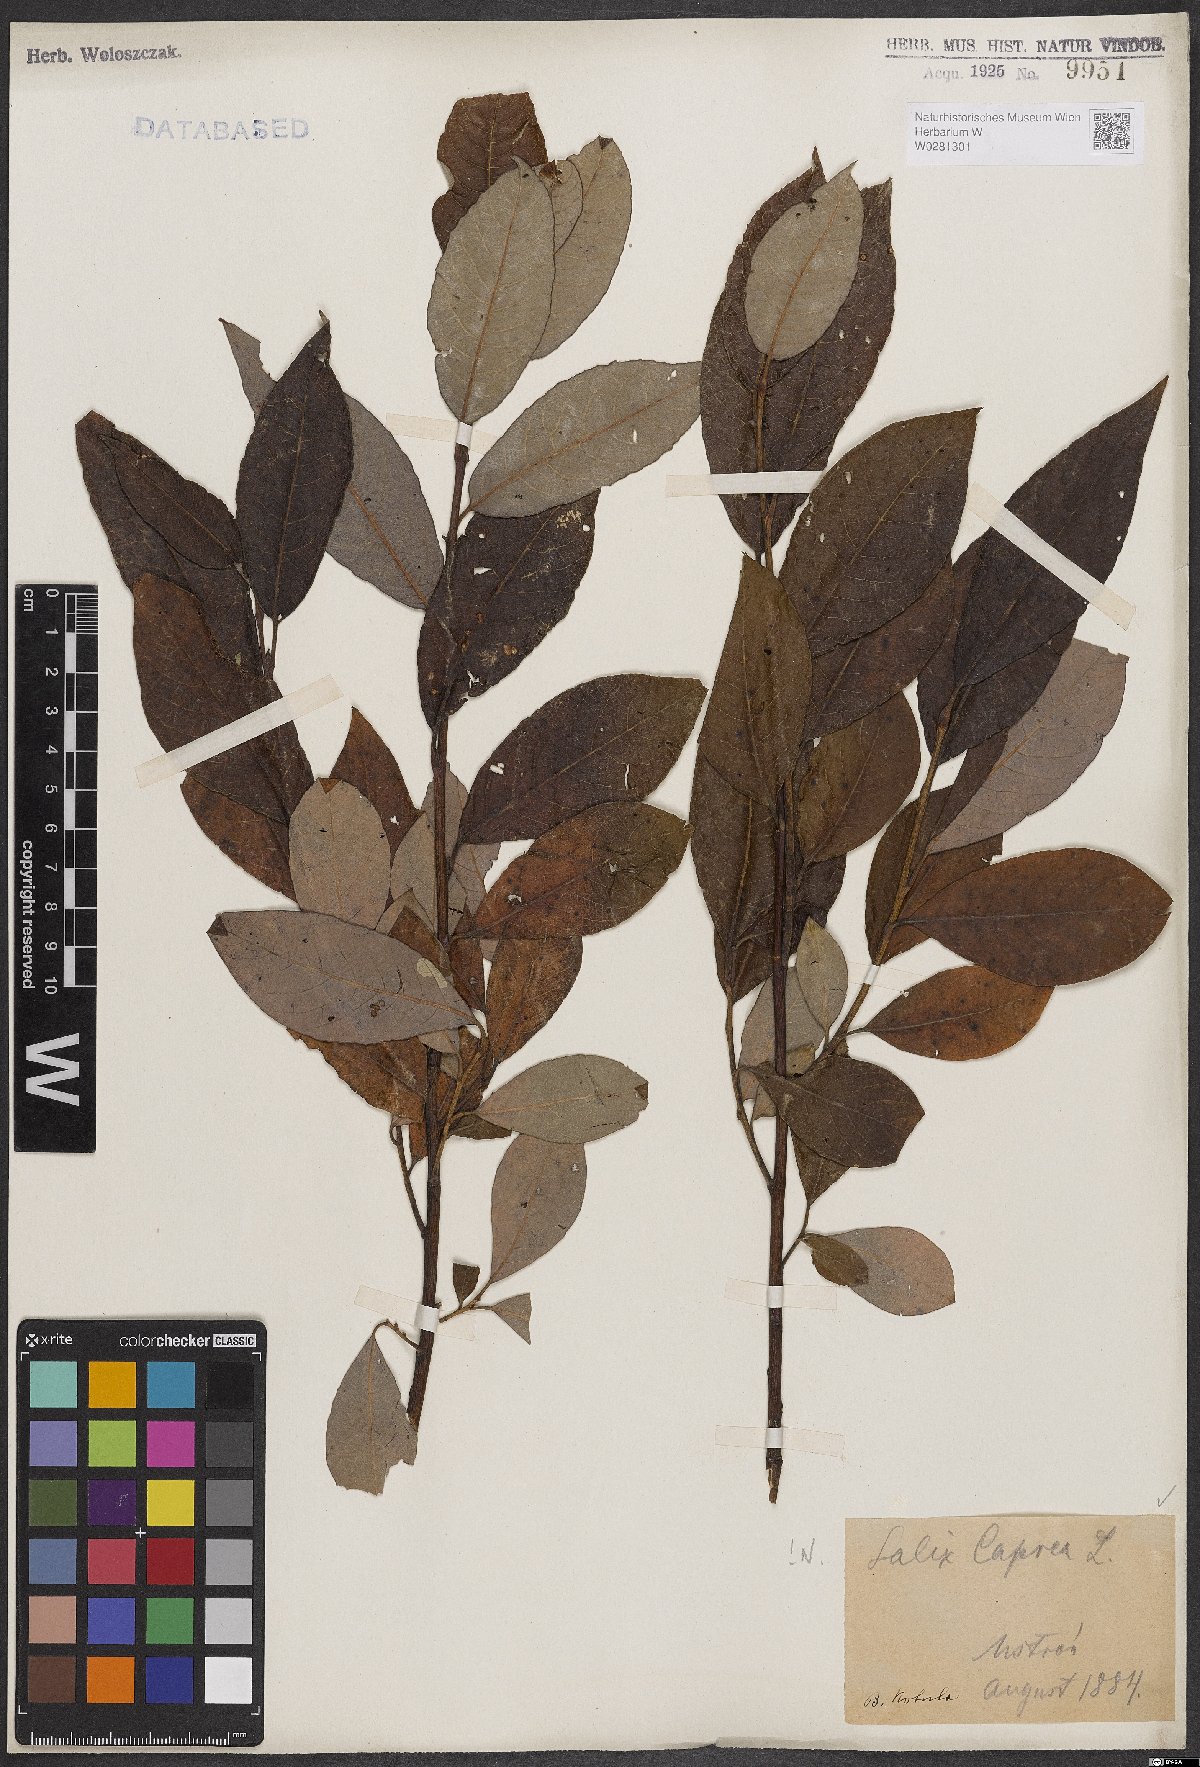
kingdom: Plantae
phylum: Tracheophyta
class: Magnoliopsida
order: Malpighiales
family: Salicaceae
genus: Salix
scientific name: Salix caprea
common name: Goat willow
